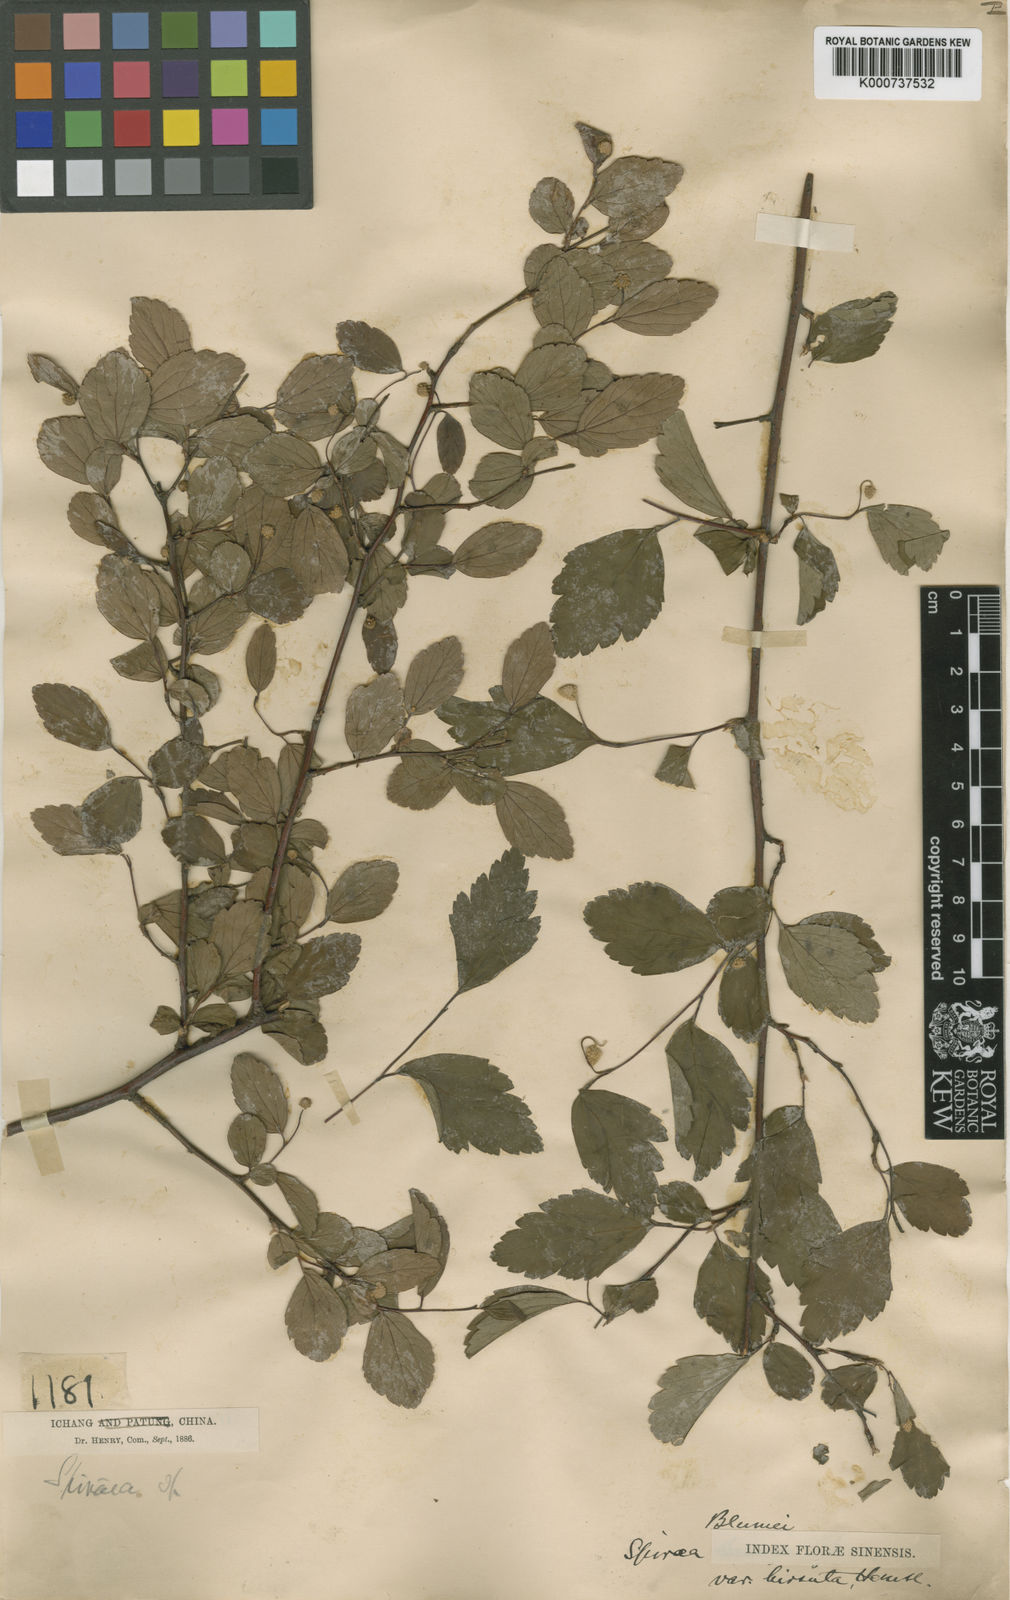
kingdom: Plantae
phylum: Tracheophyta
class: Magnoliopsida
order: Rosales
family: Rosaceae
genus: Spiraea
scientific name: Spiraea hirsuta
